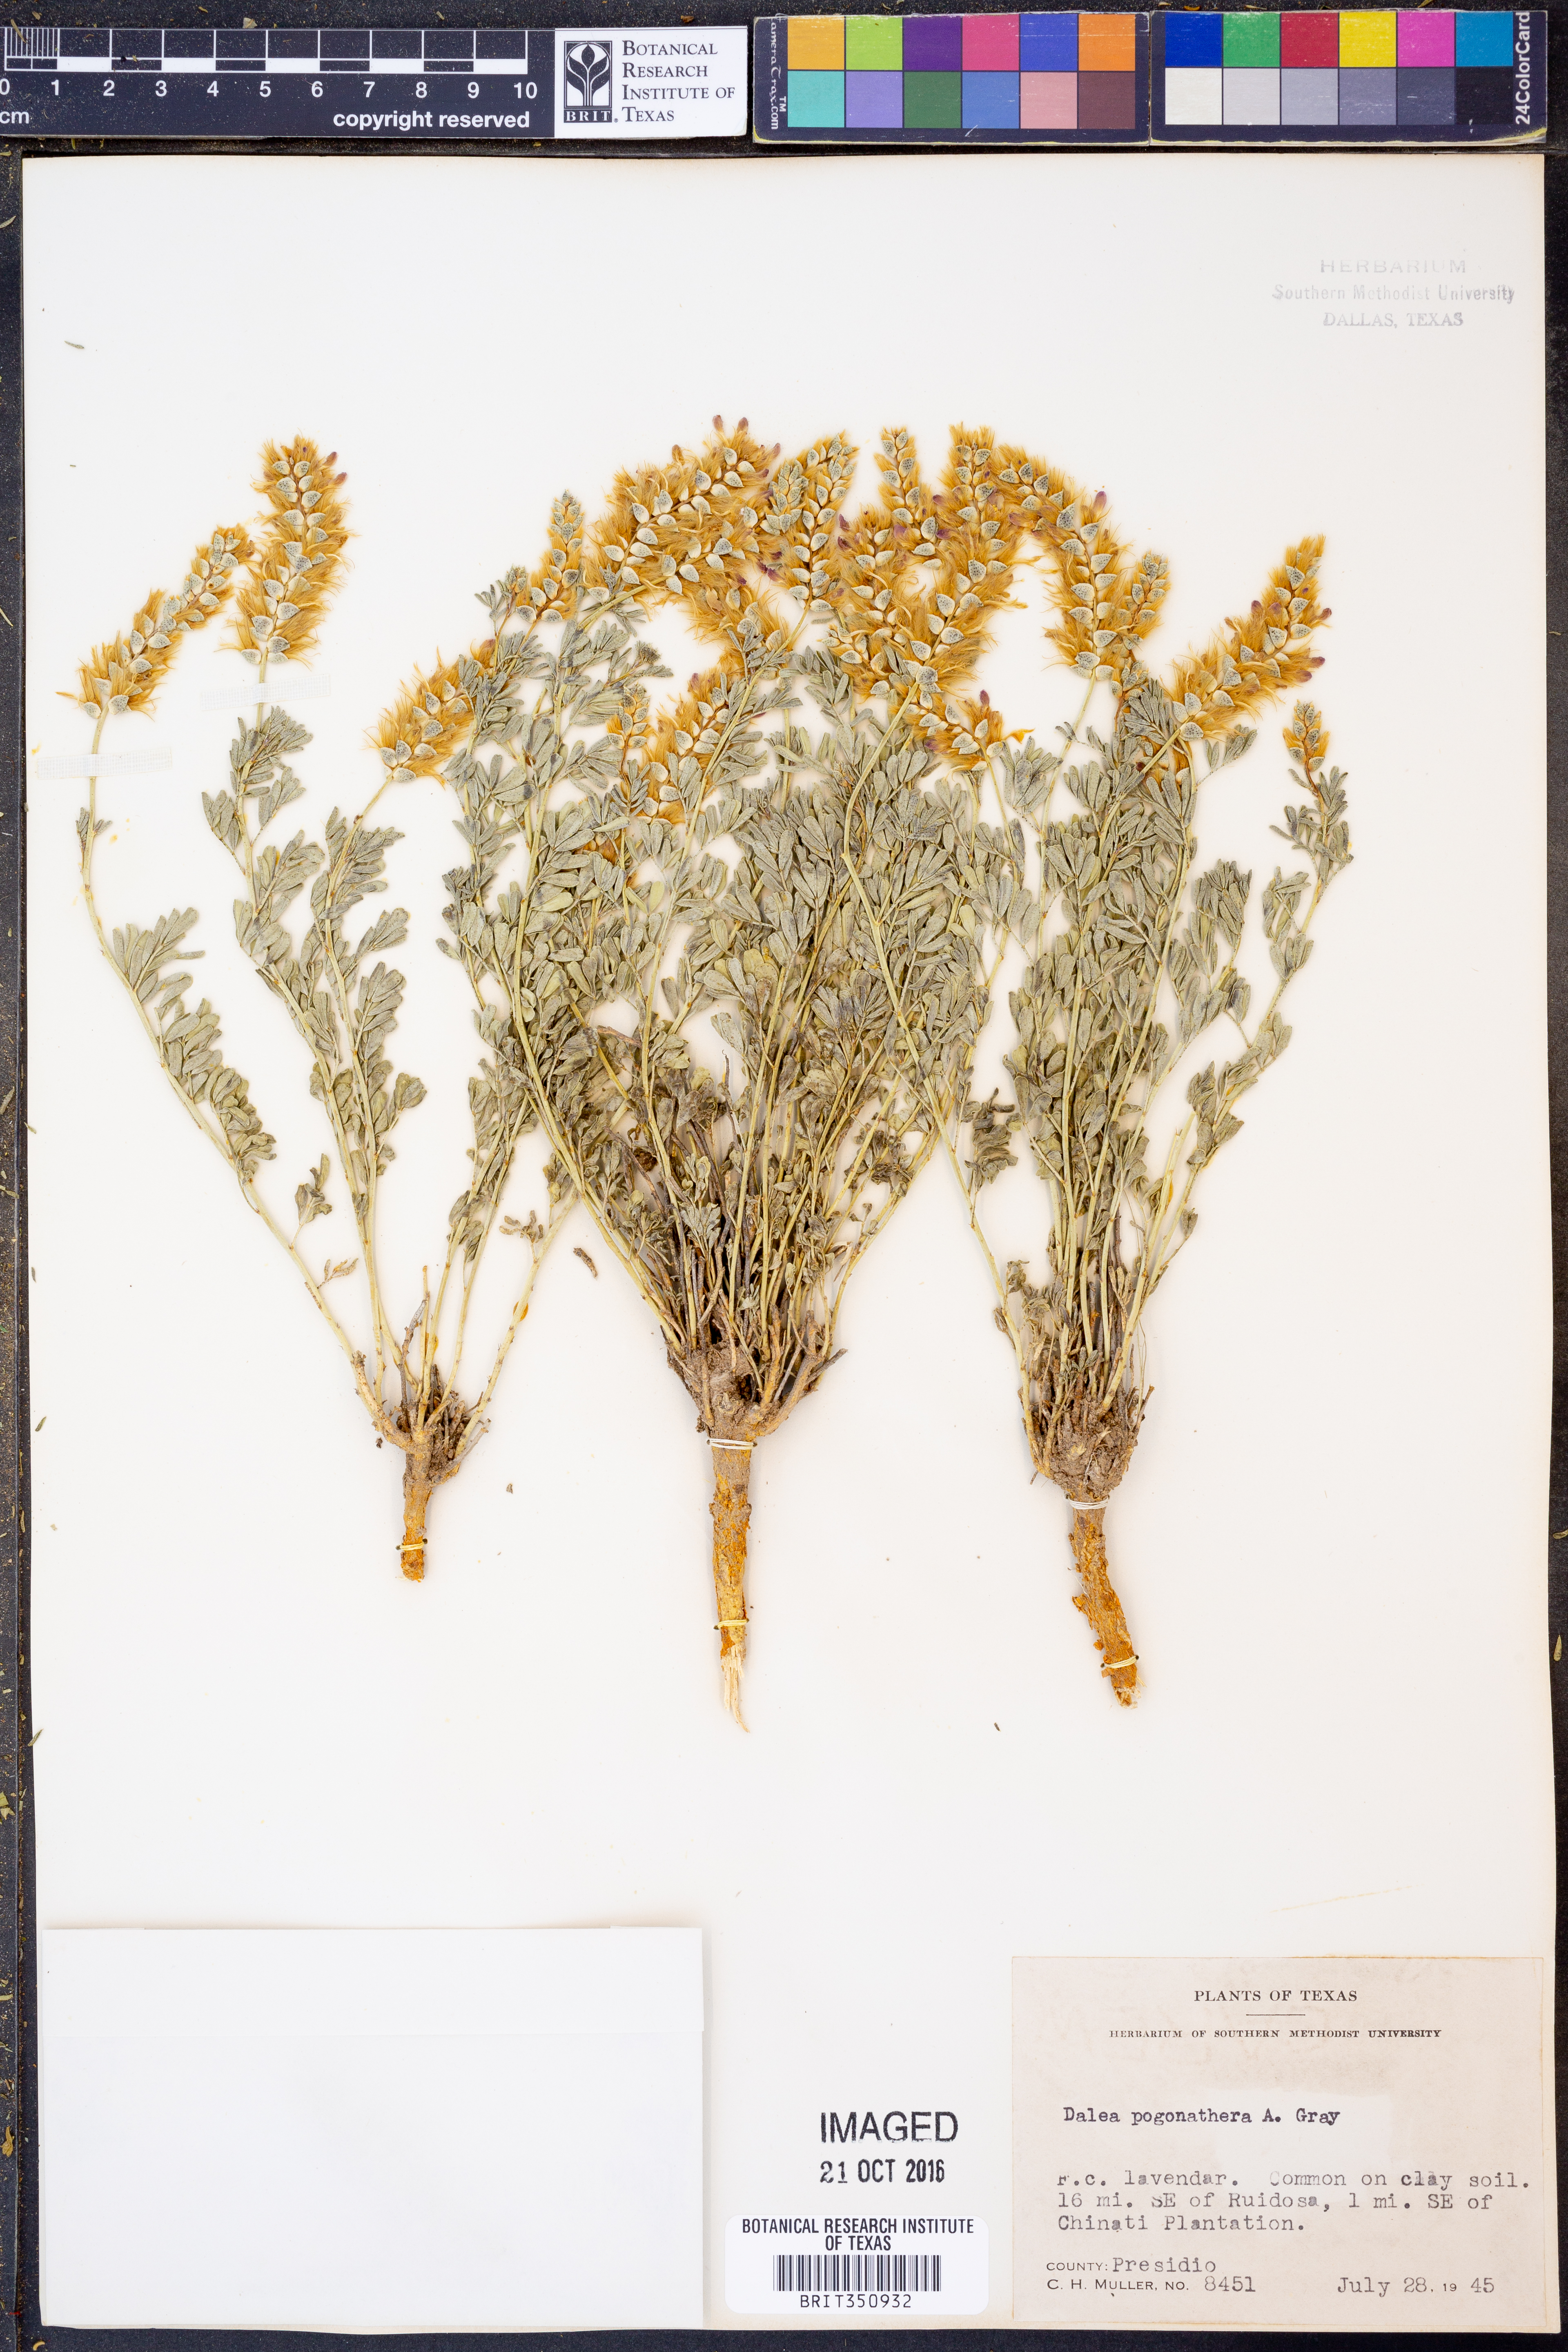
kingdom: Plantae
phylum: Tracheophyta
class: Magnoliopsida
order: Fabales
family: Fabaceae
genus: Dalea
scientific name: Dalea pogonathera
